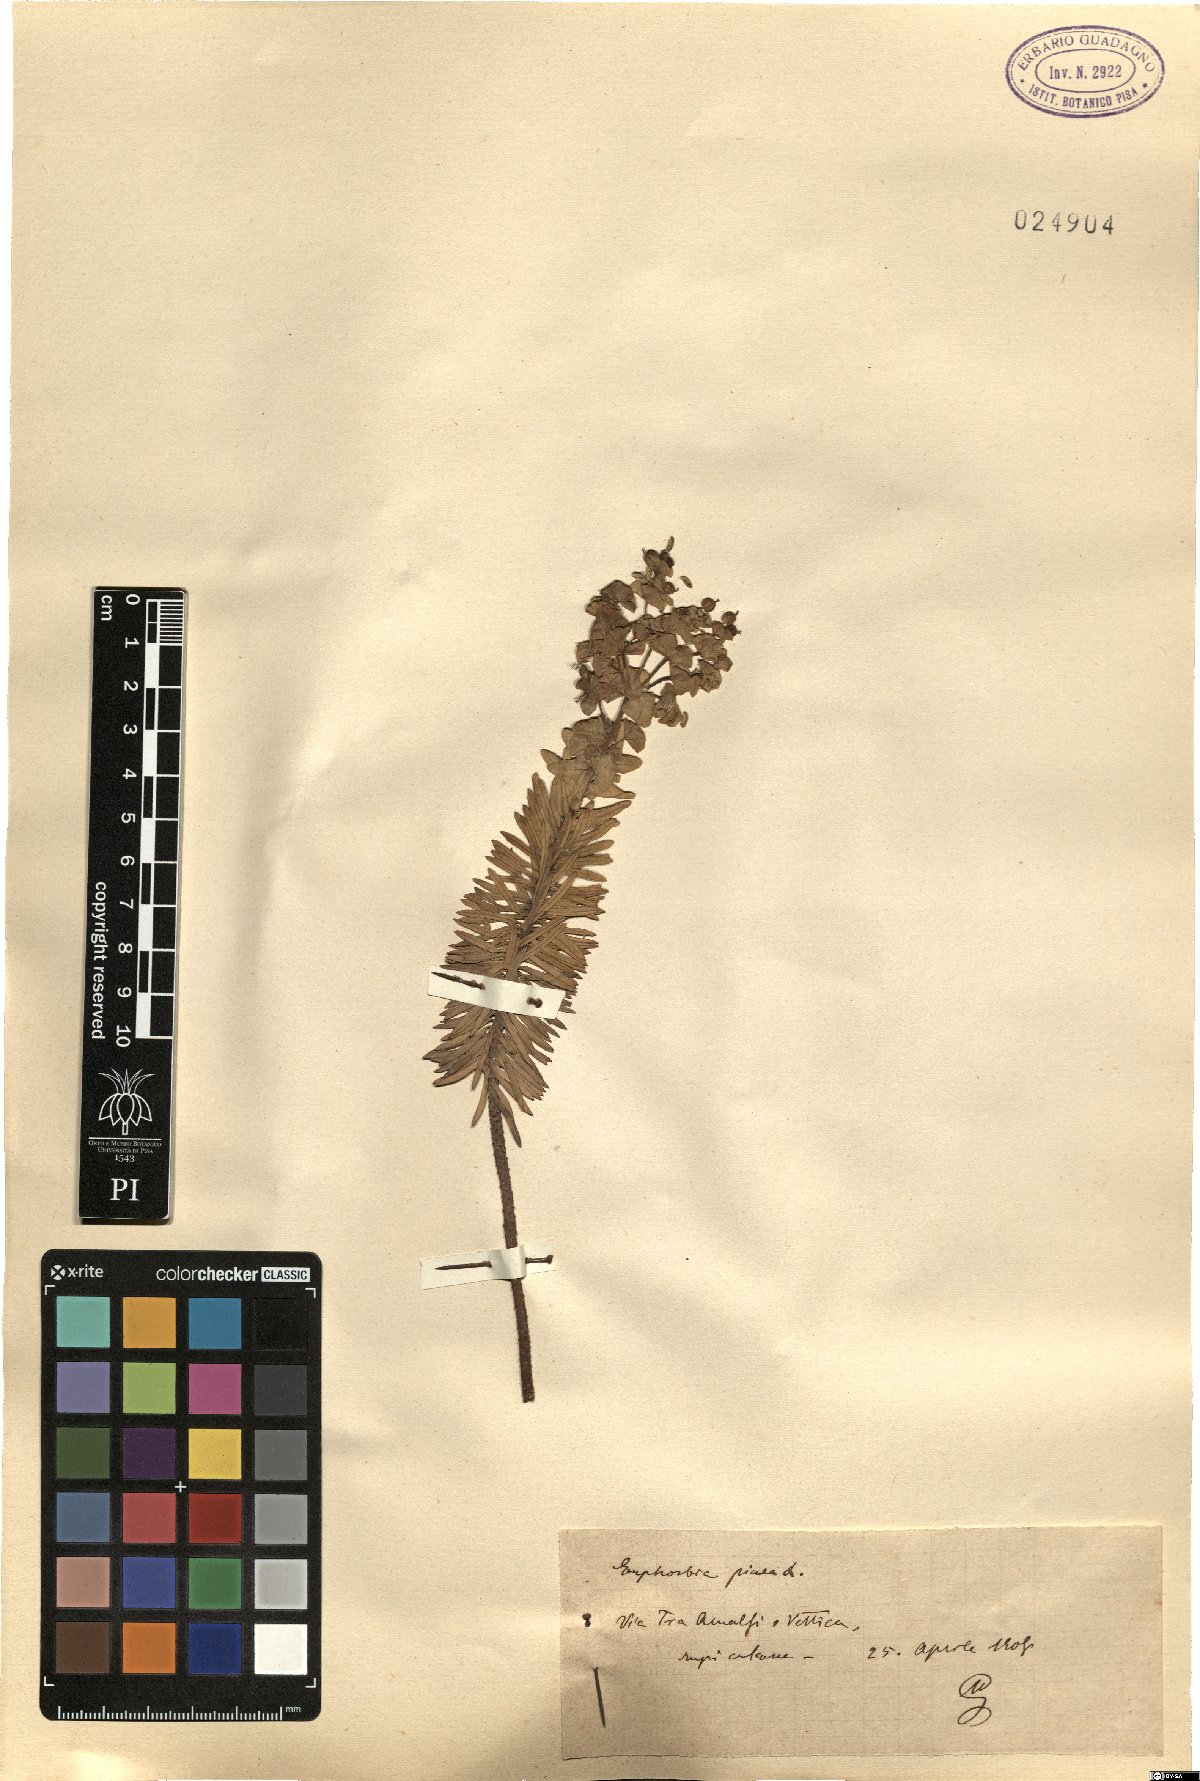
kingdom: Plantae
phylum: Tracheophyta
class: Magnoliopsida
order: Malpighiales
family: Euphorbiaceae
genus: Euphorbia
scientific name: Euphorbia segetalis
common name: Corn spurge
